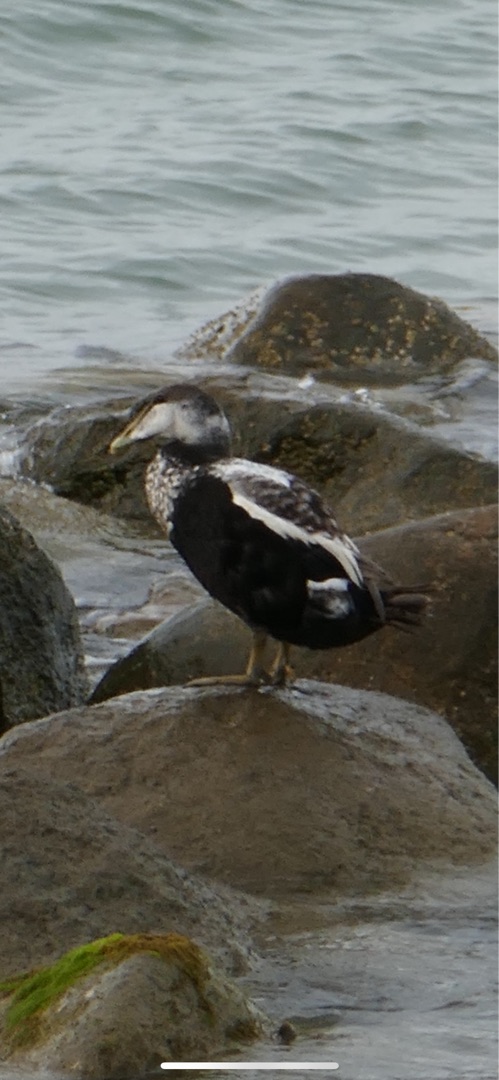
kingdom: Animalia
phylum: Chordata
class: Aves
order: Anseriformes
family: Anatidae
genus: Somateria
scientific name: Somateria mollissima
